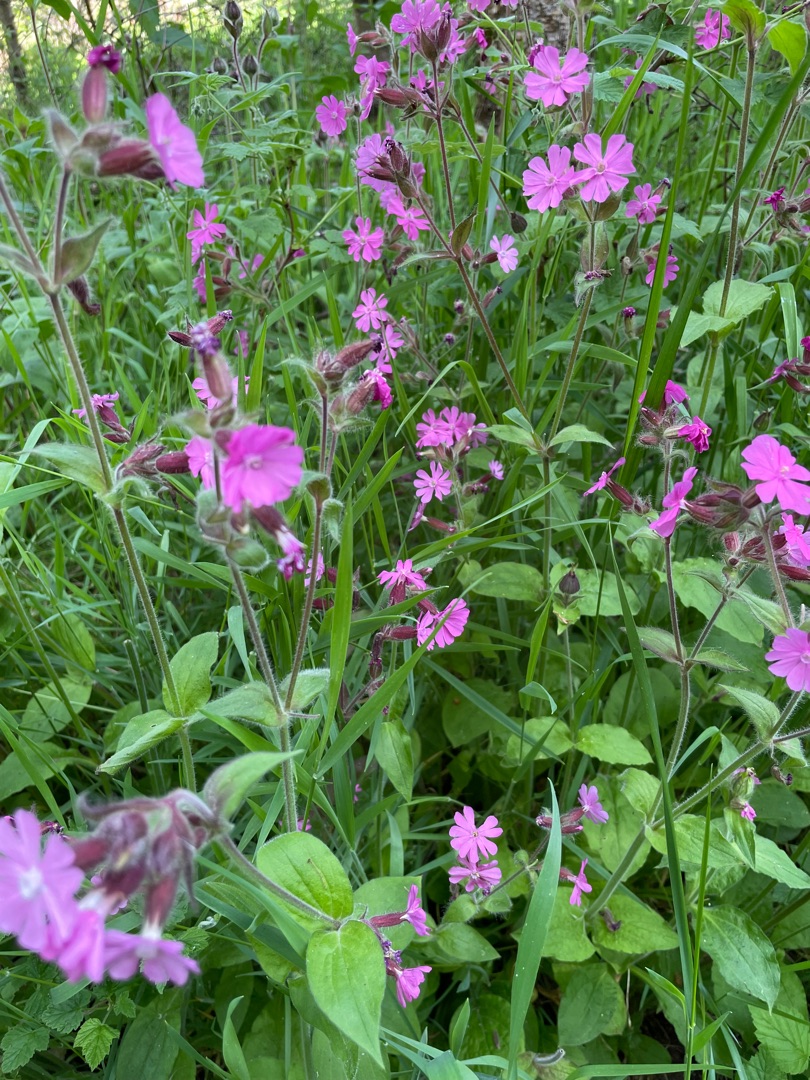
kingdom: Plantae
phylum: Tracheophyta
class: Magnoliopsida
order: Caryophyllales
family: Caryophyllaceae
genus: Silene
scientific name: Silene dioica
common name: Dagpragtstjerne
